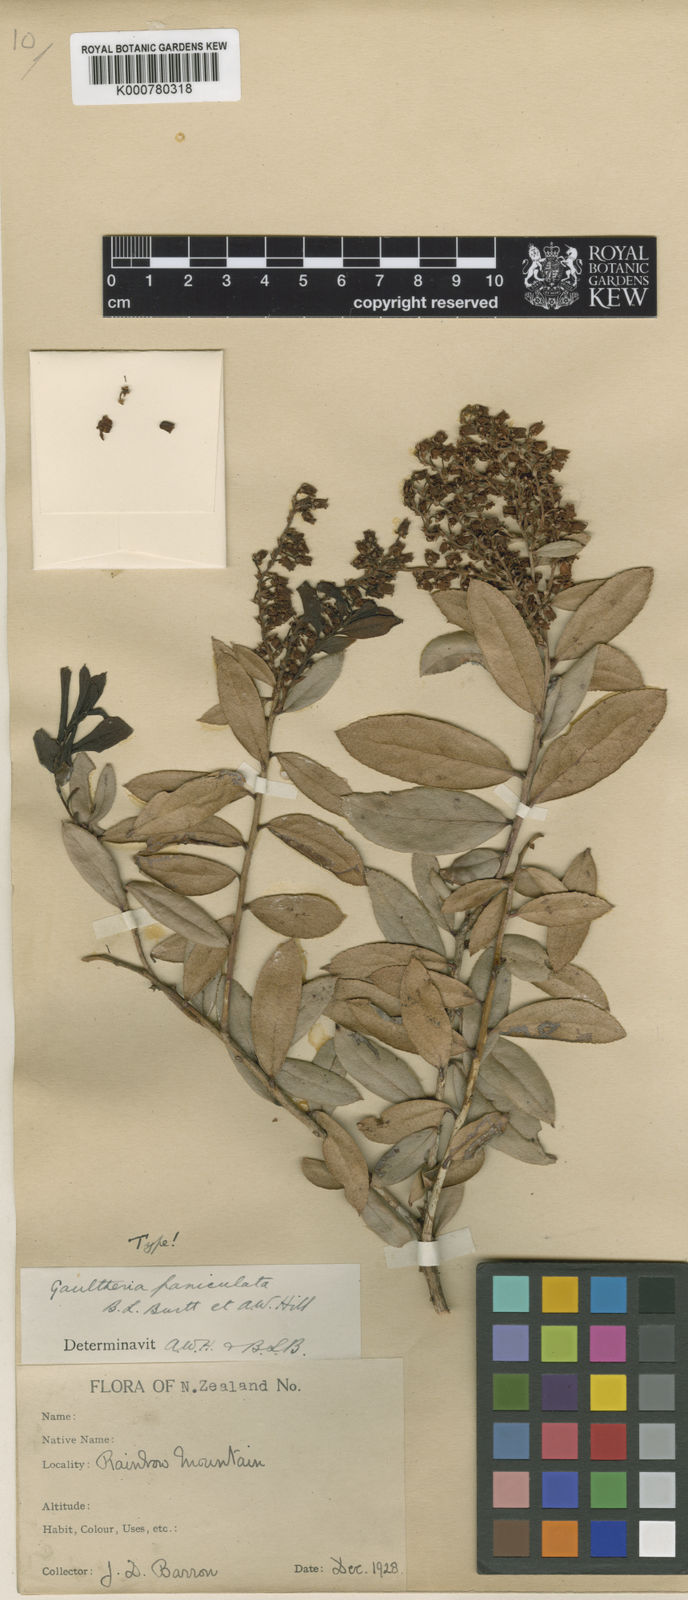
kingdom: Plantae
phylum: Tracheophyta
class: Magnoliopsida
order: Ericales
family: Ericaceae
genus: Gaultheria
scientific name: Gaultheria paniculata
